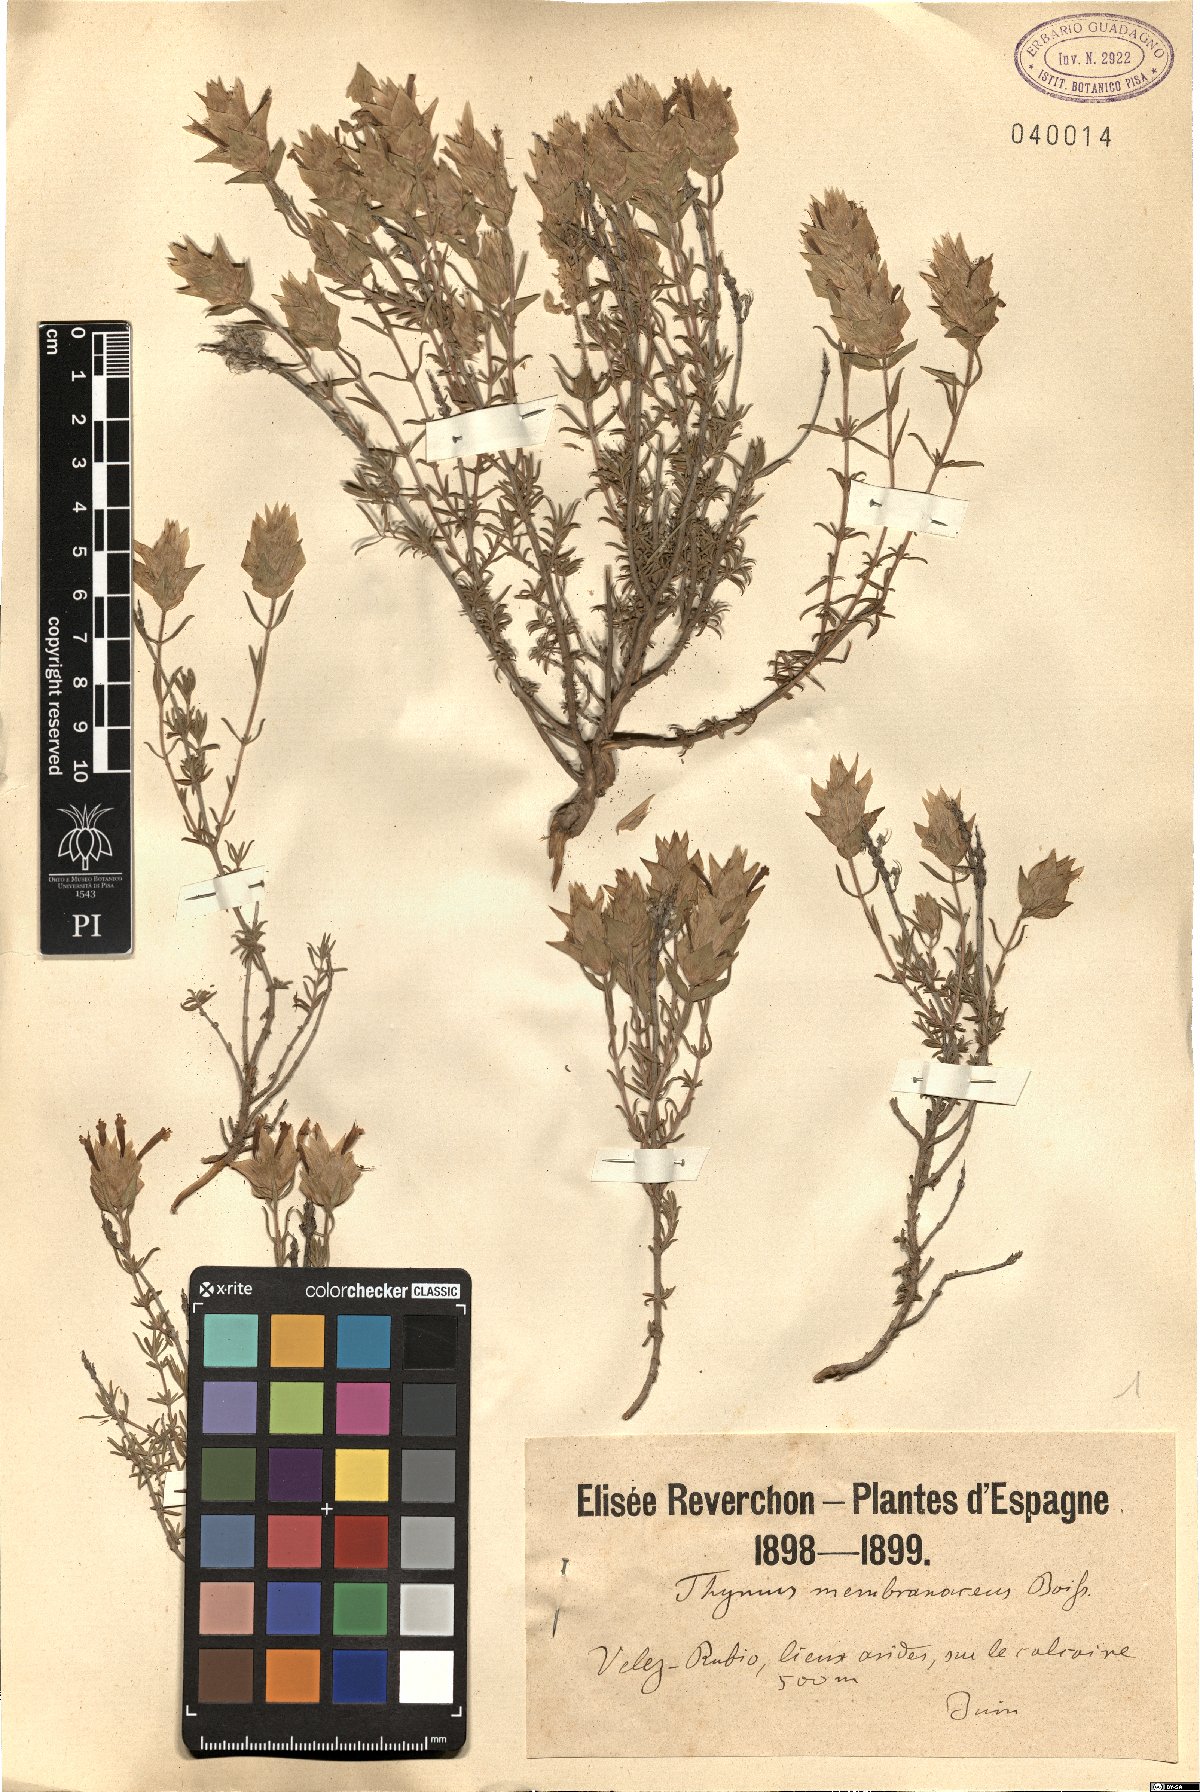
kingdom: Plantae
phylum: Tracheophyta
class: Magnoliopsida
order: Lamiales
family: Lamiaceae
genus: Thymus
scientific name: Thymus membranaceus
